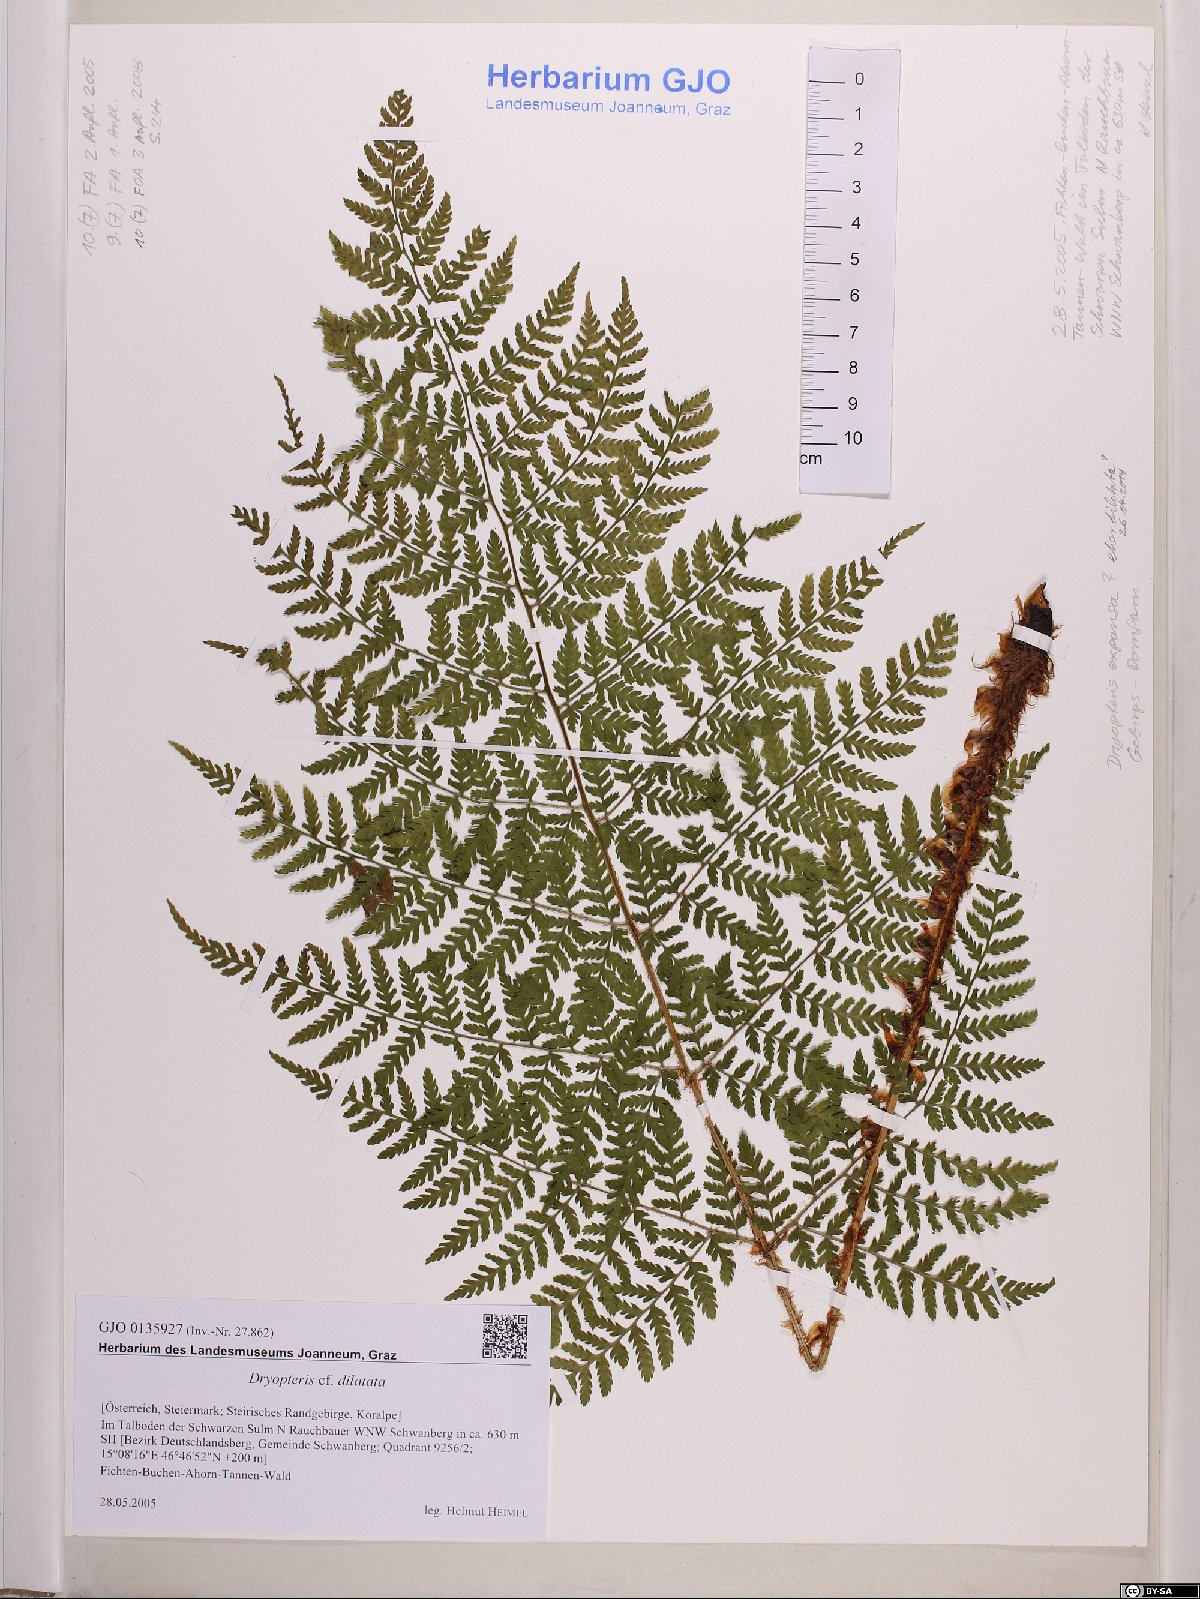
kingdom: Plantae
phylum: Tracheophyta
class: Polypodiopsida
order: Polypodiales
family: Dryopteridaceae
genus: Dryopteris
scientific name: Dryopteris dilatata
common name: Broad buckler-fern
